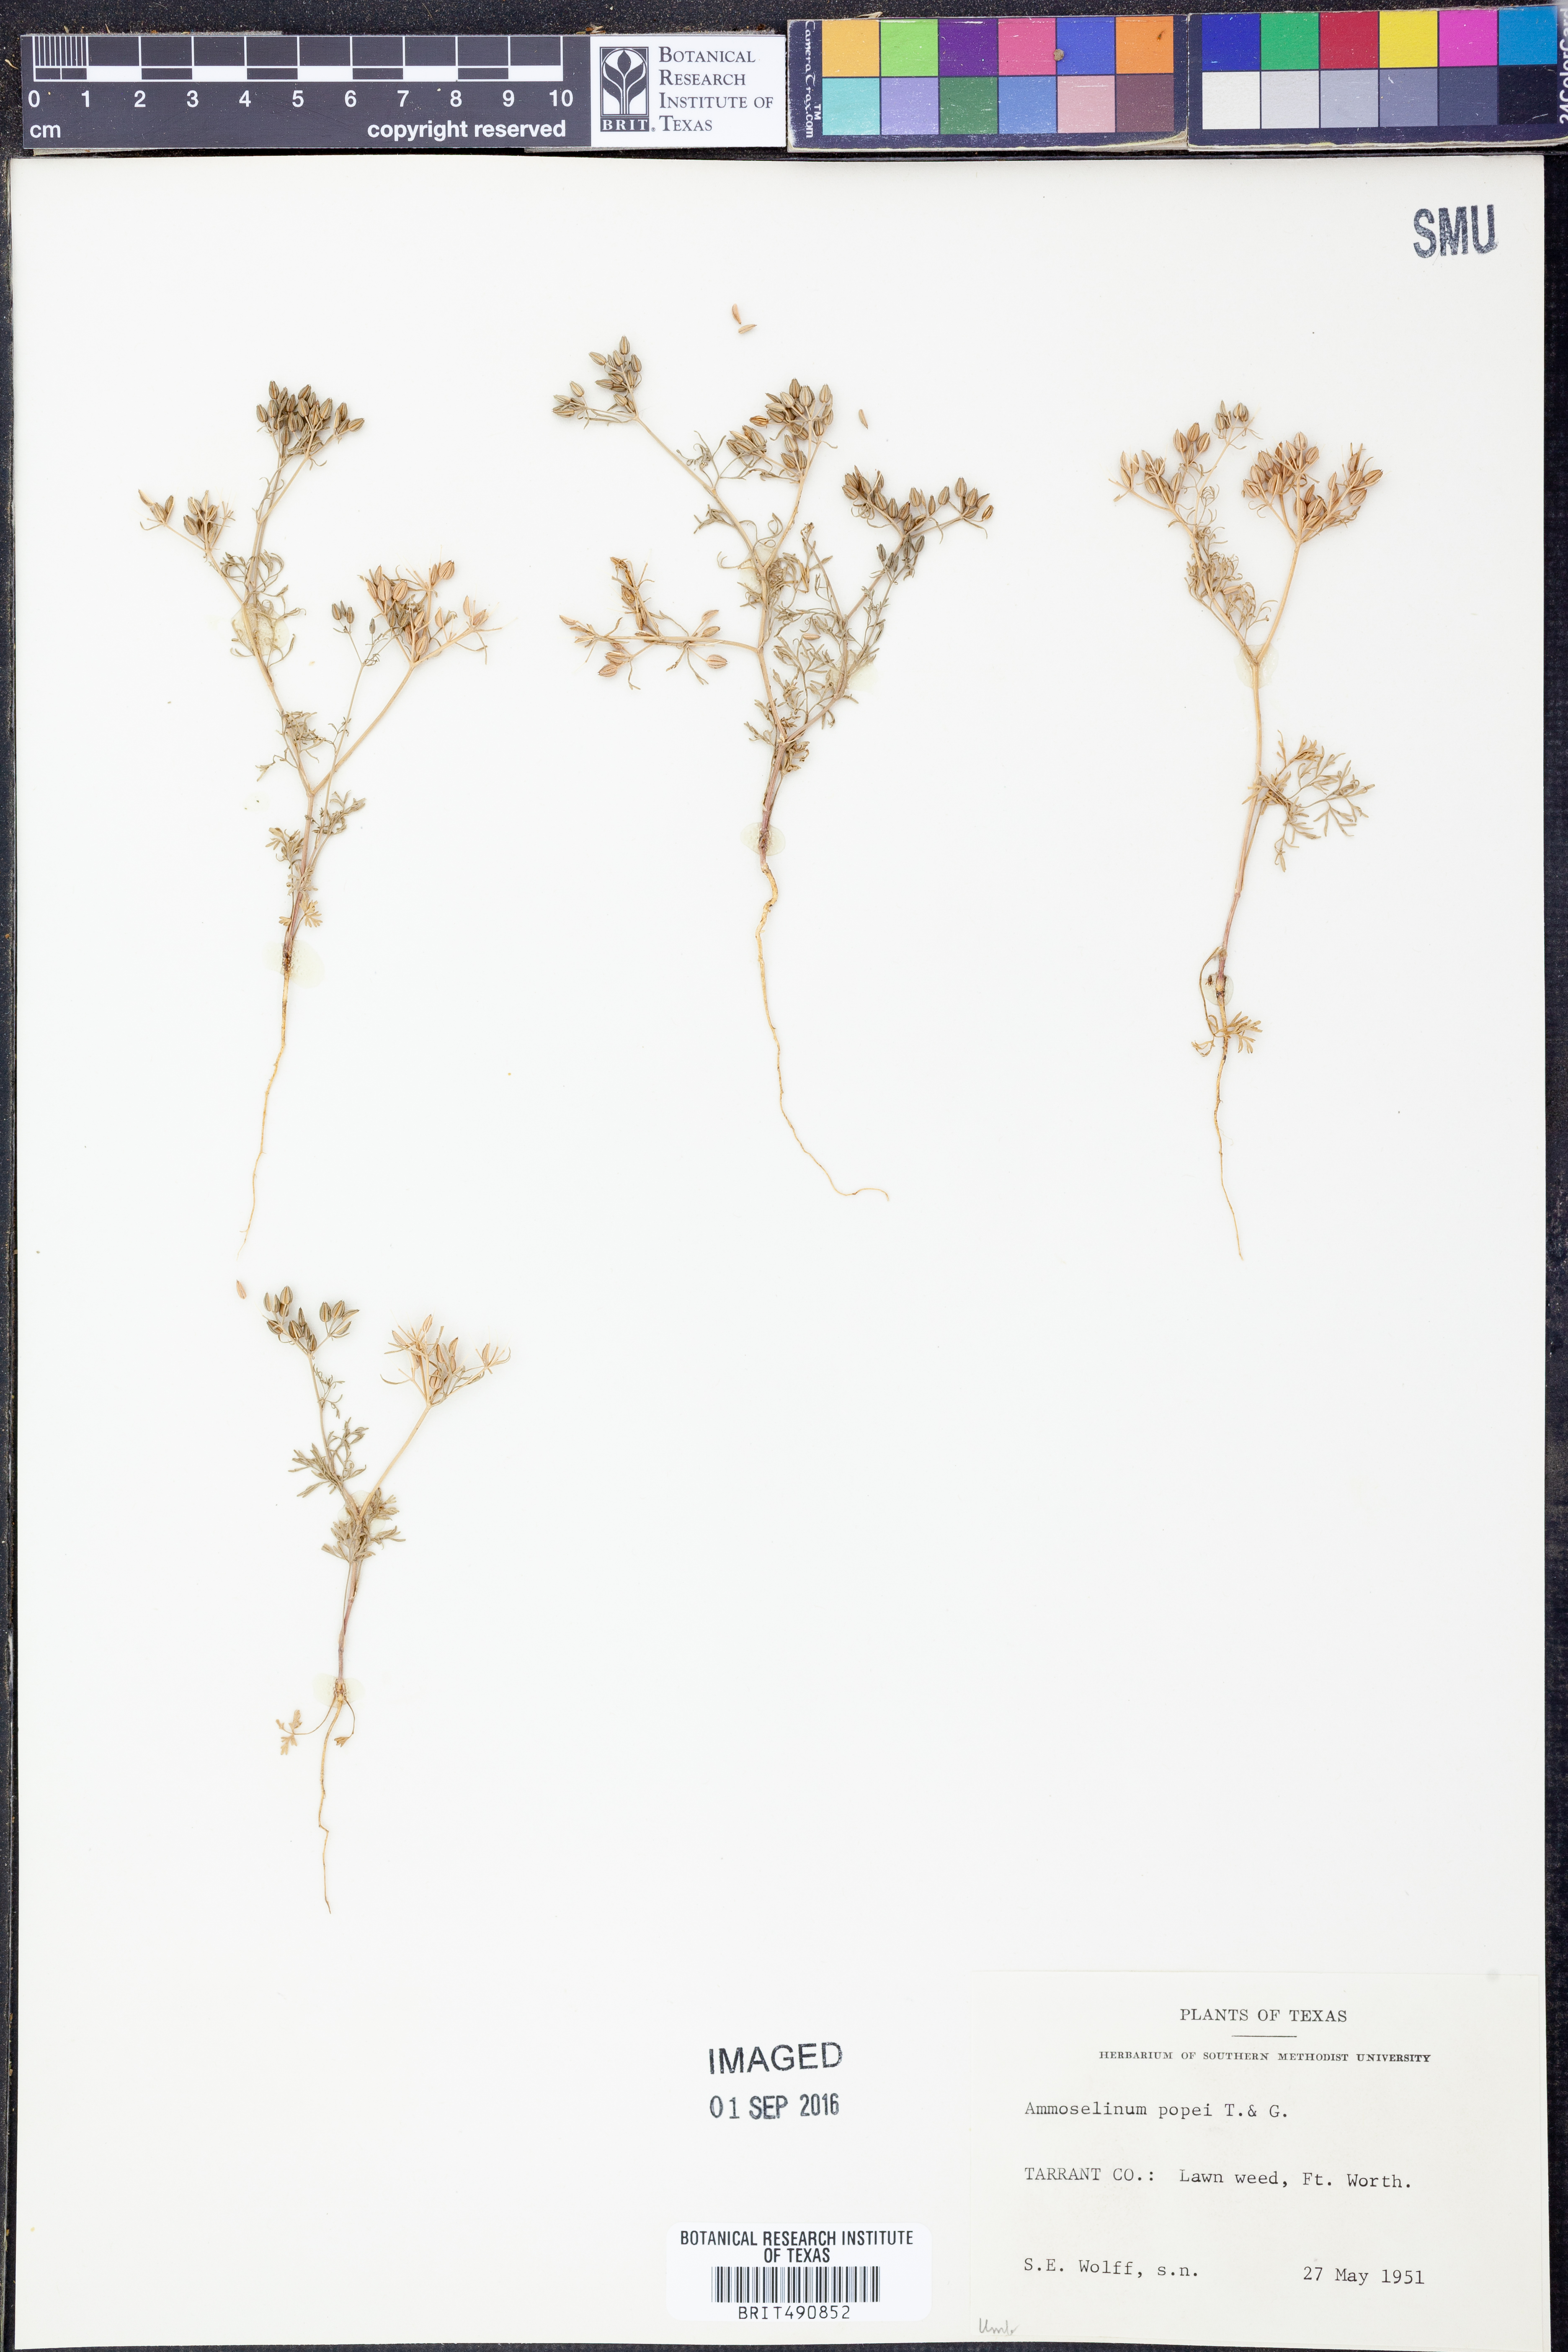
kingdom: Plantae
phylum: Tracheophyta
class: Magnoliopsida
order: Apiales
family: Apiaceae
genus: Ammoselinum
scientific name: Ammoselinum popei
